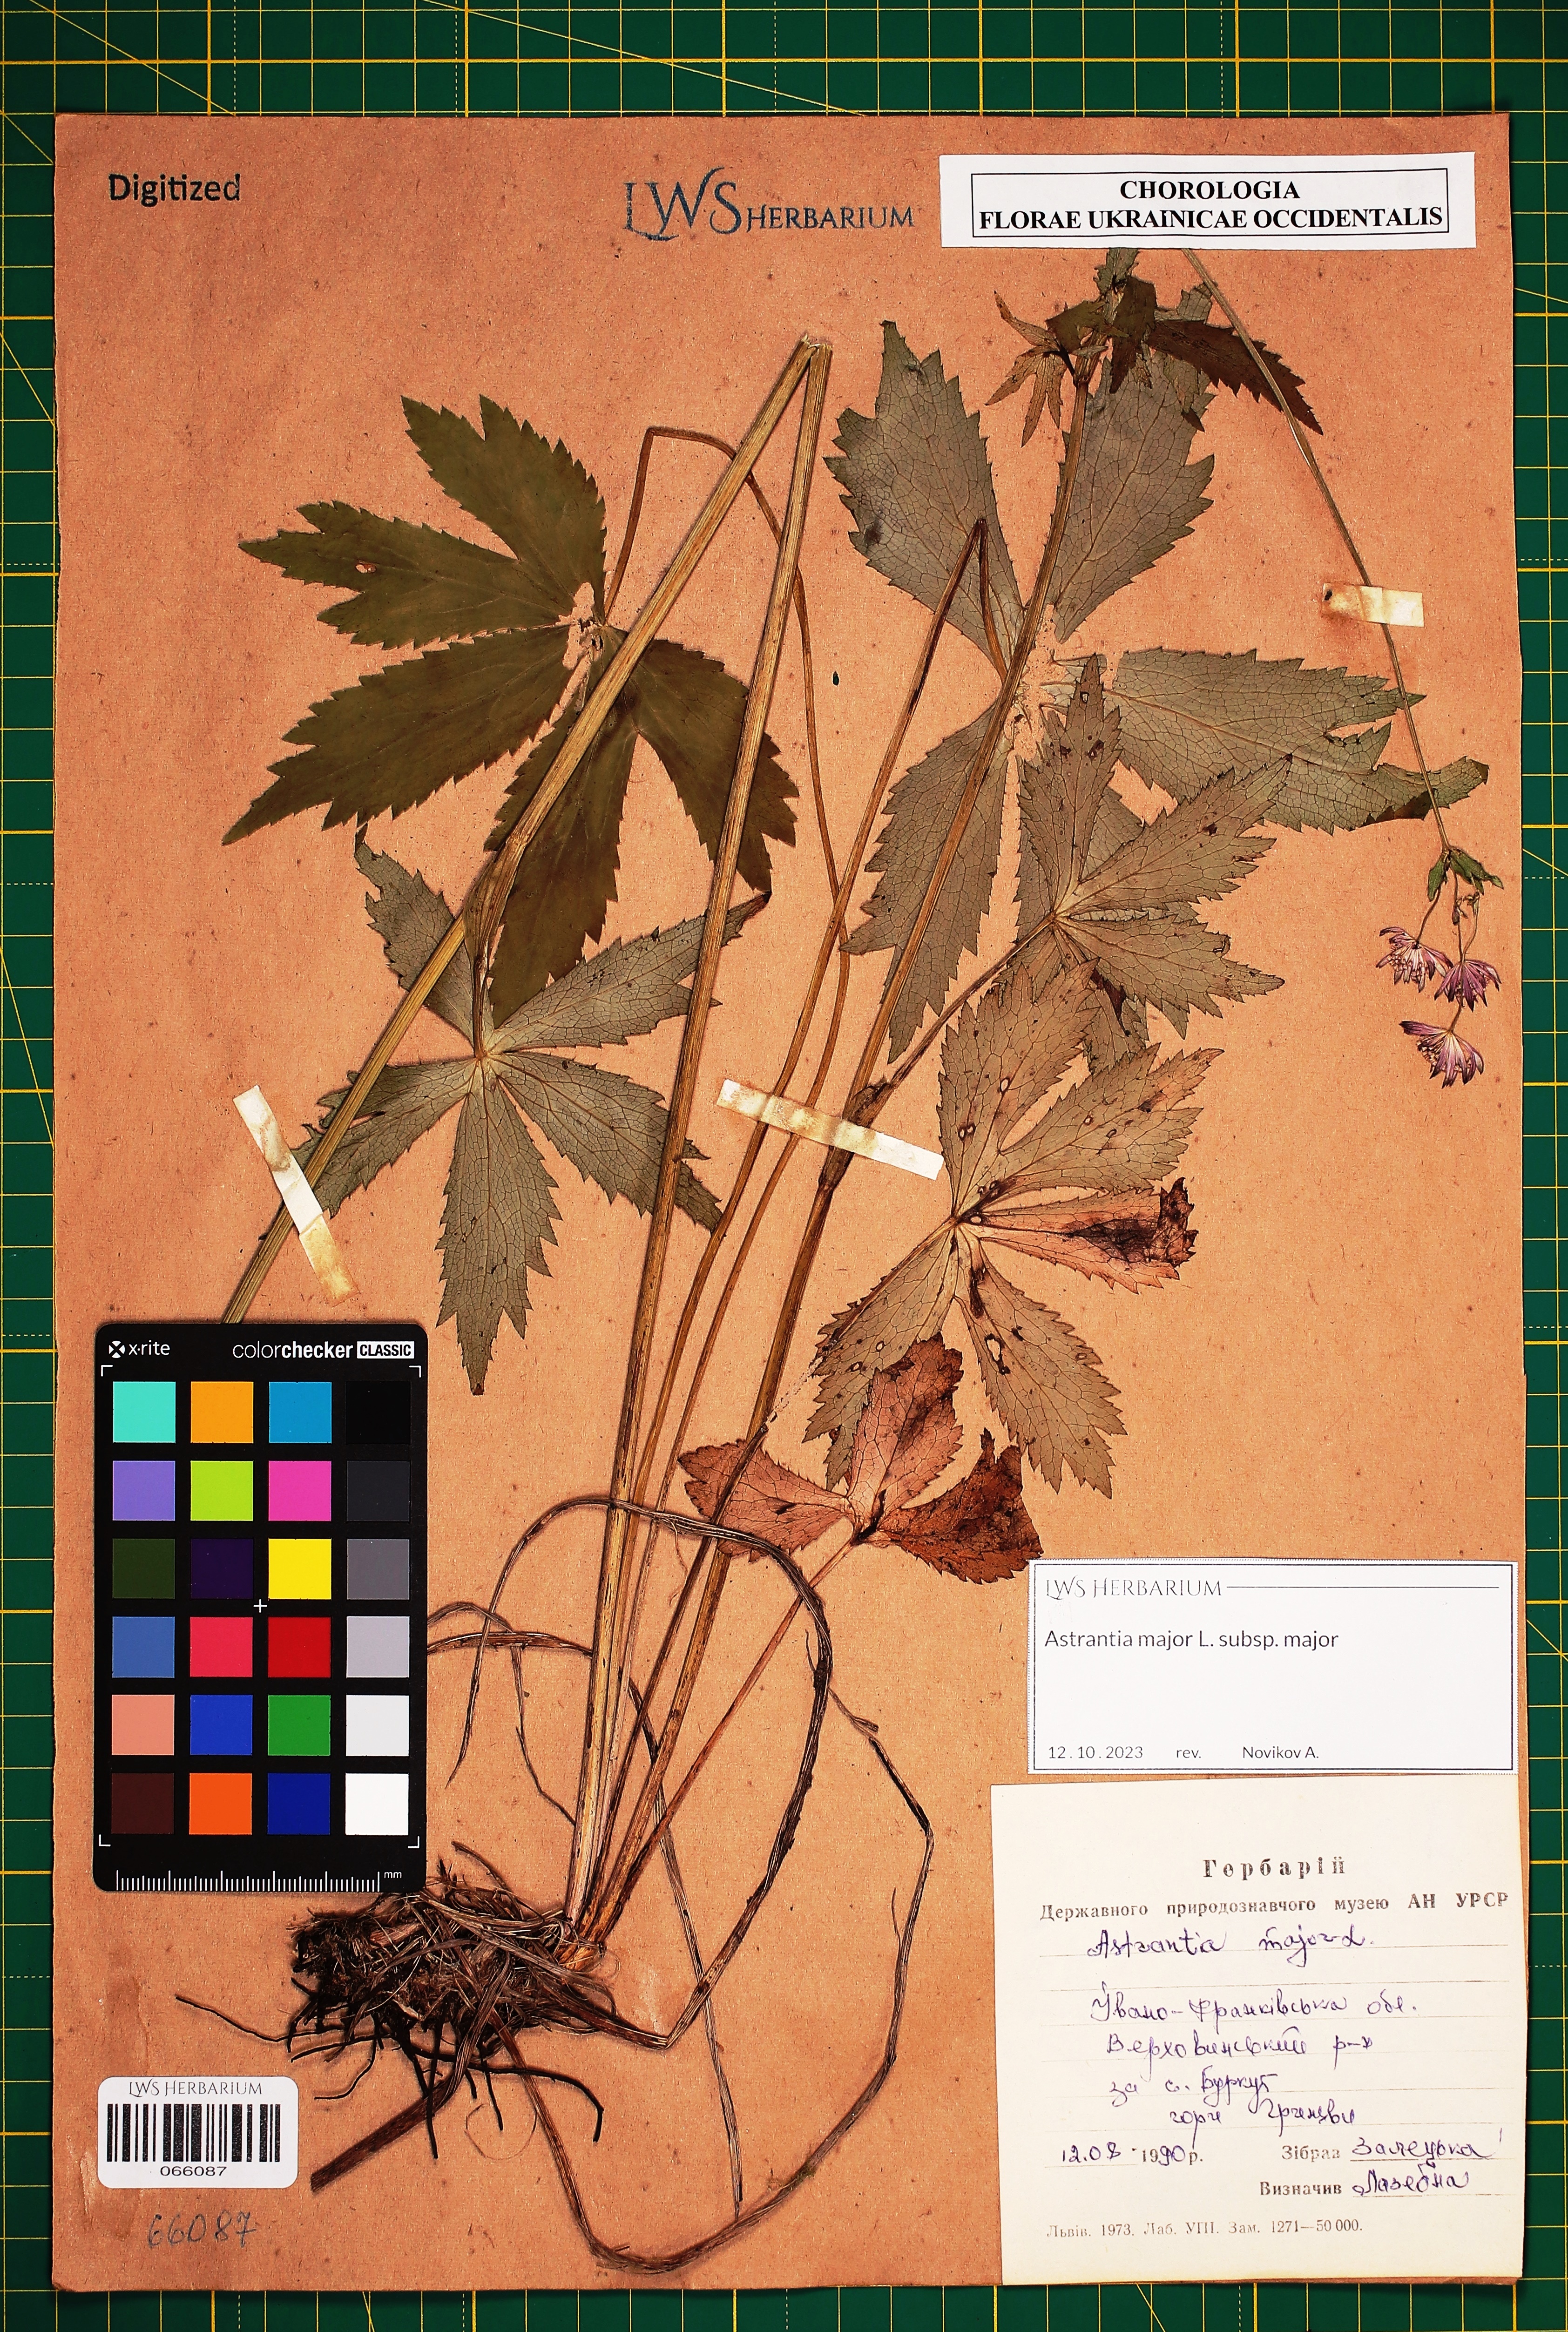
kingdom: Plantae
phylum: Tracheophyta
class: Magnoliopsida
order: Apiales
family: Apiaceae
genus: Astrantia
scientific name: Astrantia major
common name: Greater masterwort
